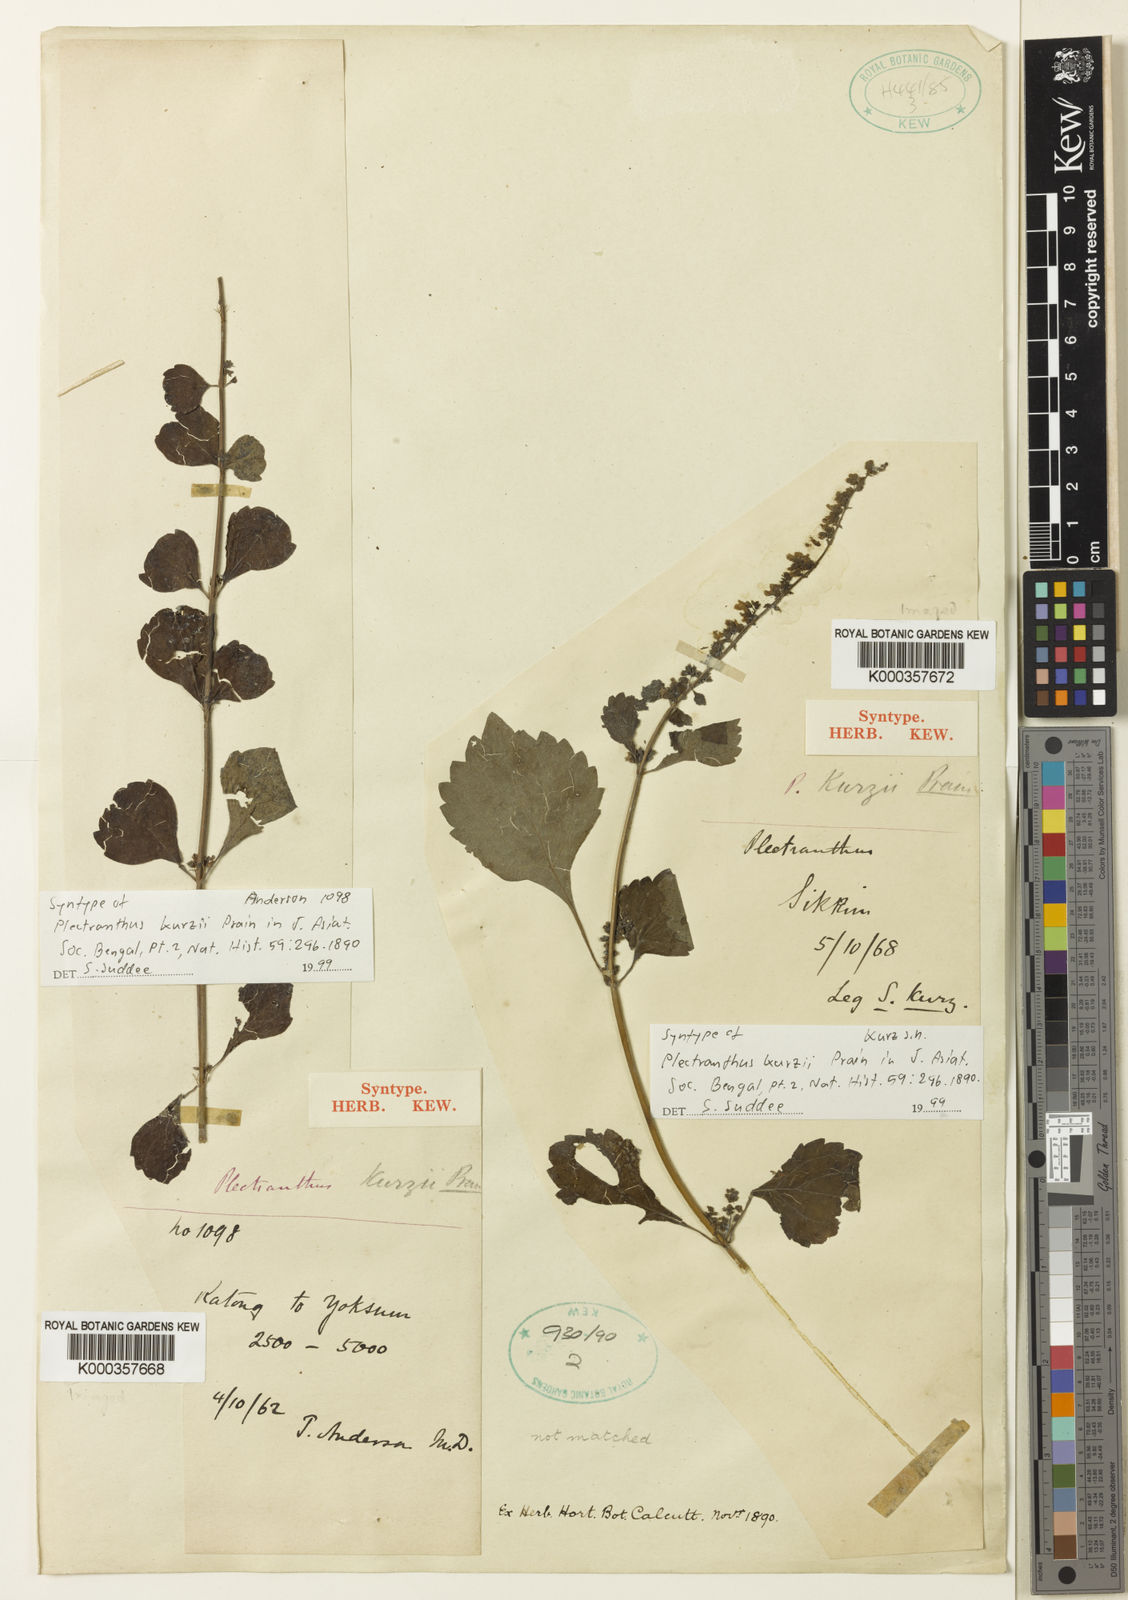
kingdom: Plantae
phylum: Tracheophyta
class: Magnoliopsida
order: Lamiales
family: Lamiaceae
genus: Isodon
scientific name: Isodon kurzii
